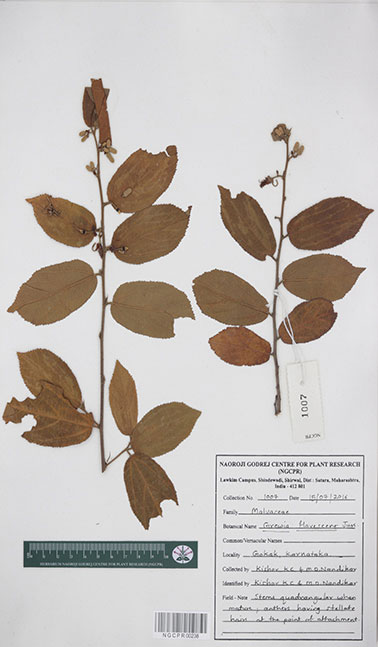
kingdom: Plantae
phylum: Tracheophyta
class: Magnoliopsida
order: Malvales
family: Malvaceae
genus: Grewia
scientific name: Grewia flavescens
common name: Sandpaper raisin
